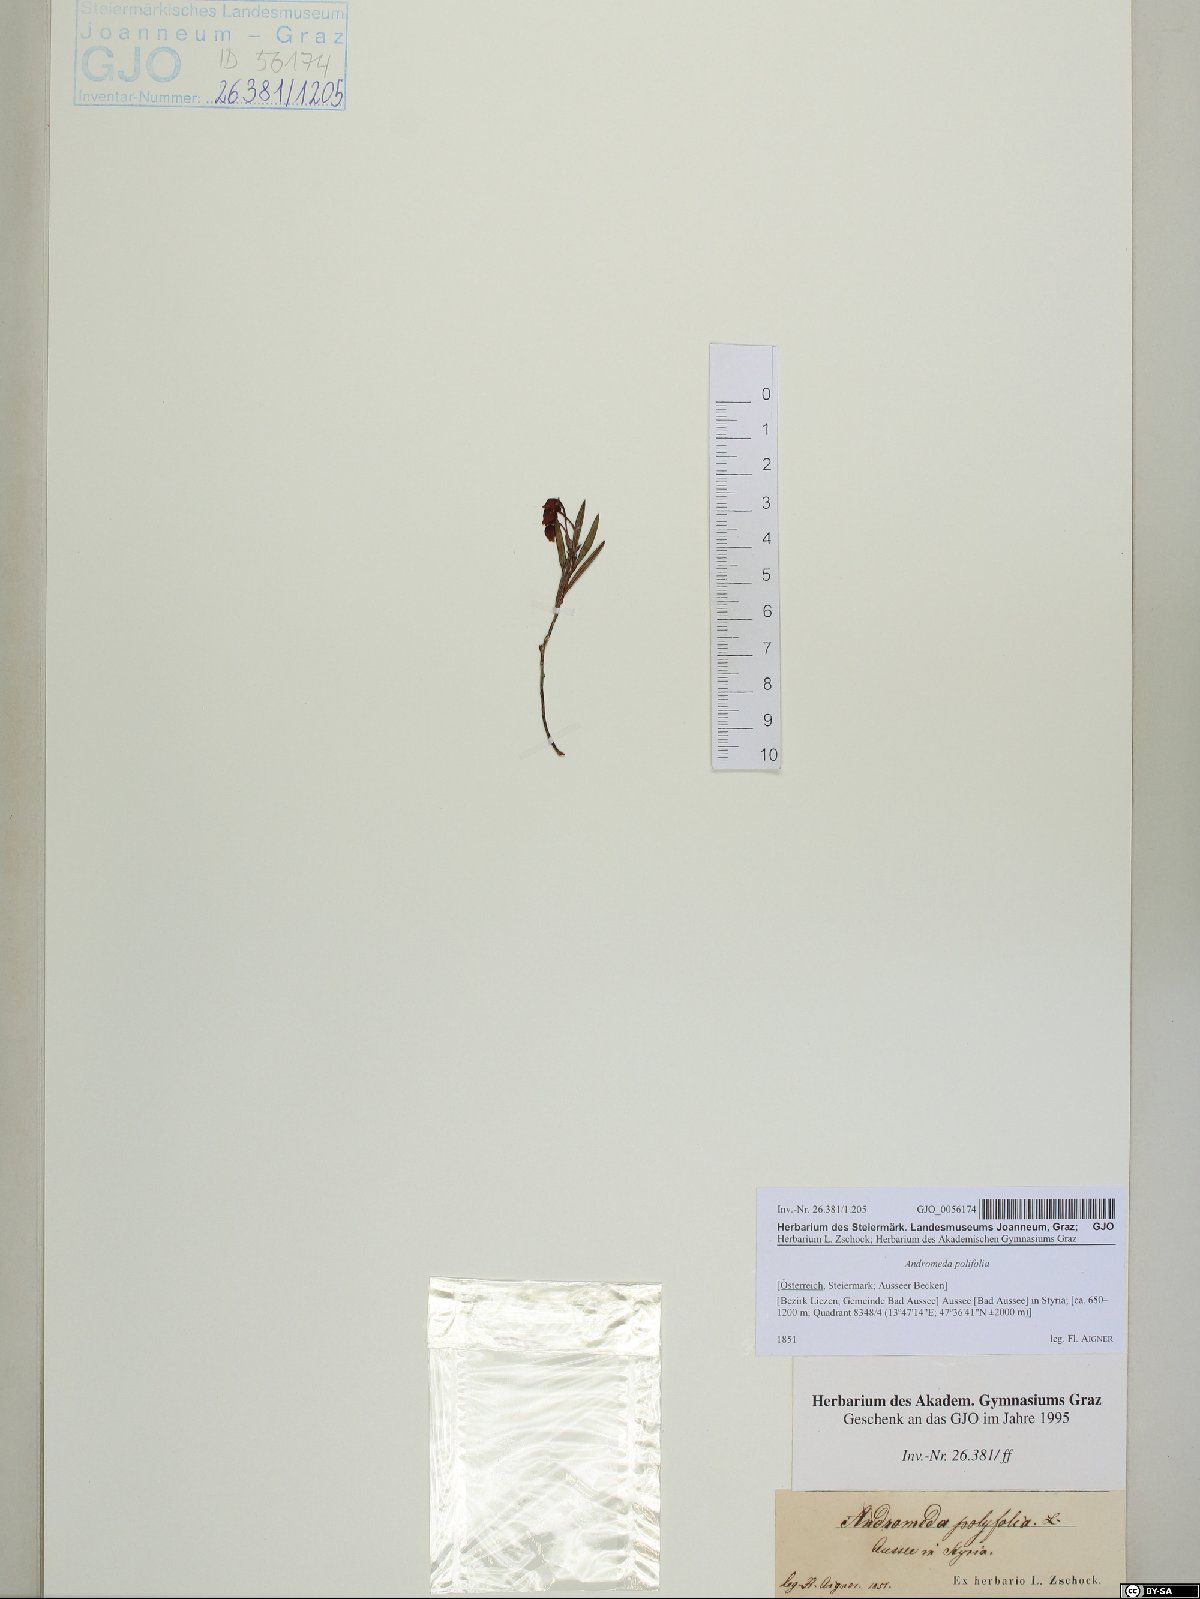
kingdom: Plantae
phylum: Tracheophyta
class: Magnoliopsida
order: Ericales
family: Ericaceae
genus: Andromeda
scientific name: Andromeda polifolia
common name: Bog-rosemary
